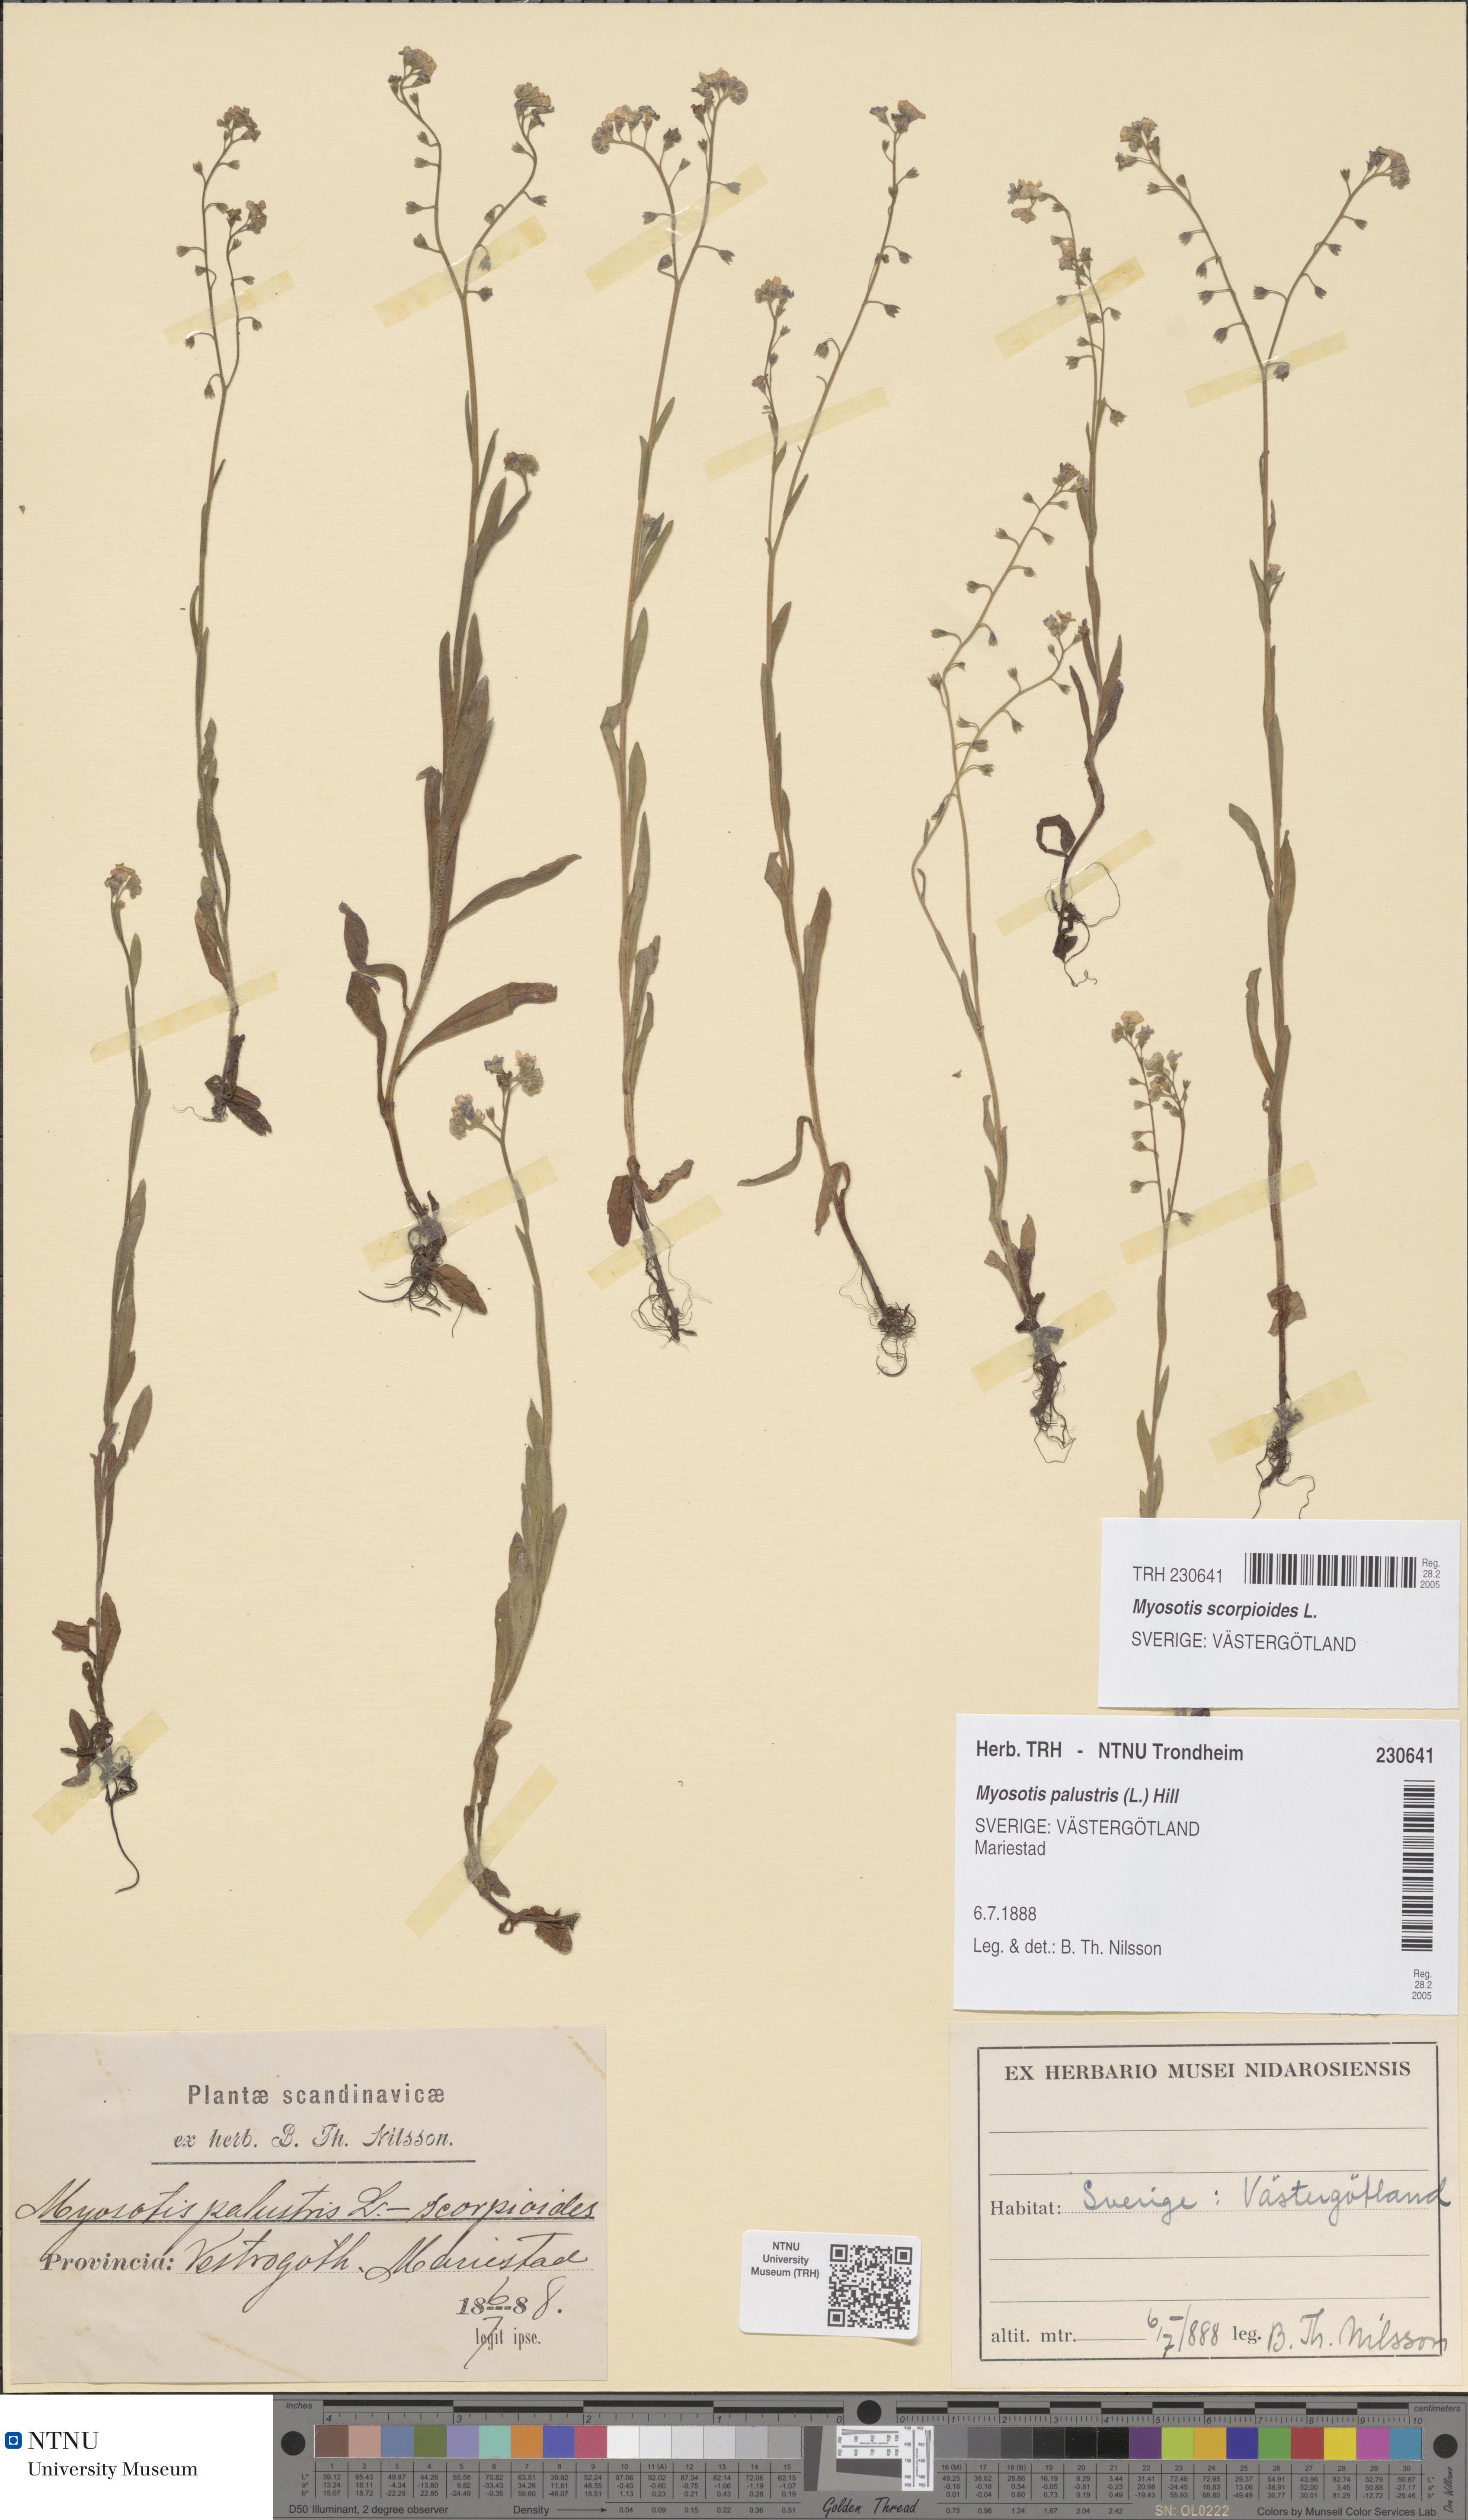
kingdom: Plantae
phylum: Tracheophyta
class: Magnoliopsida
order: Boraginales
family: Boraginaceae
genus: Myosotis
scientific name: Myosotis scorpioides
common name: Water forget-me-not
